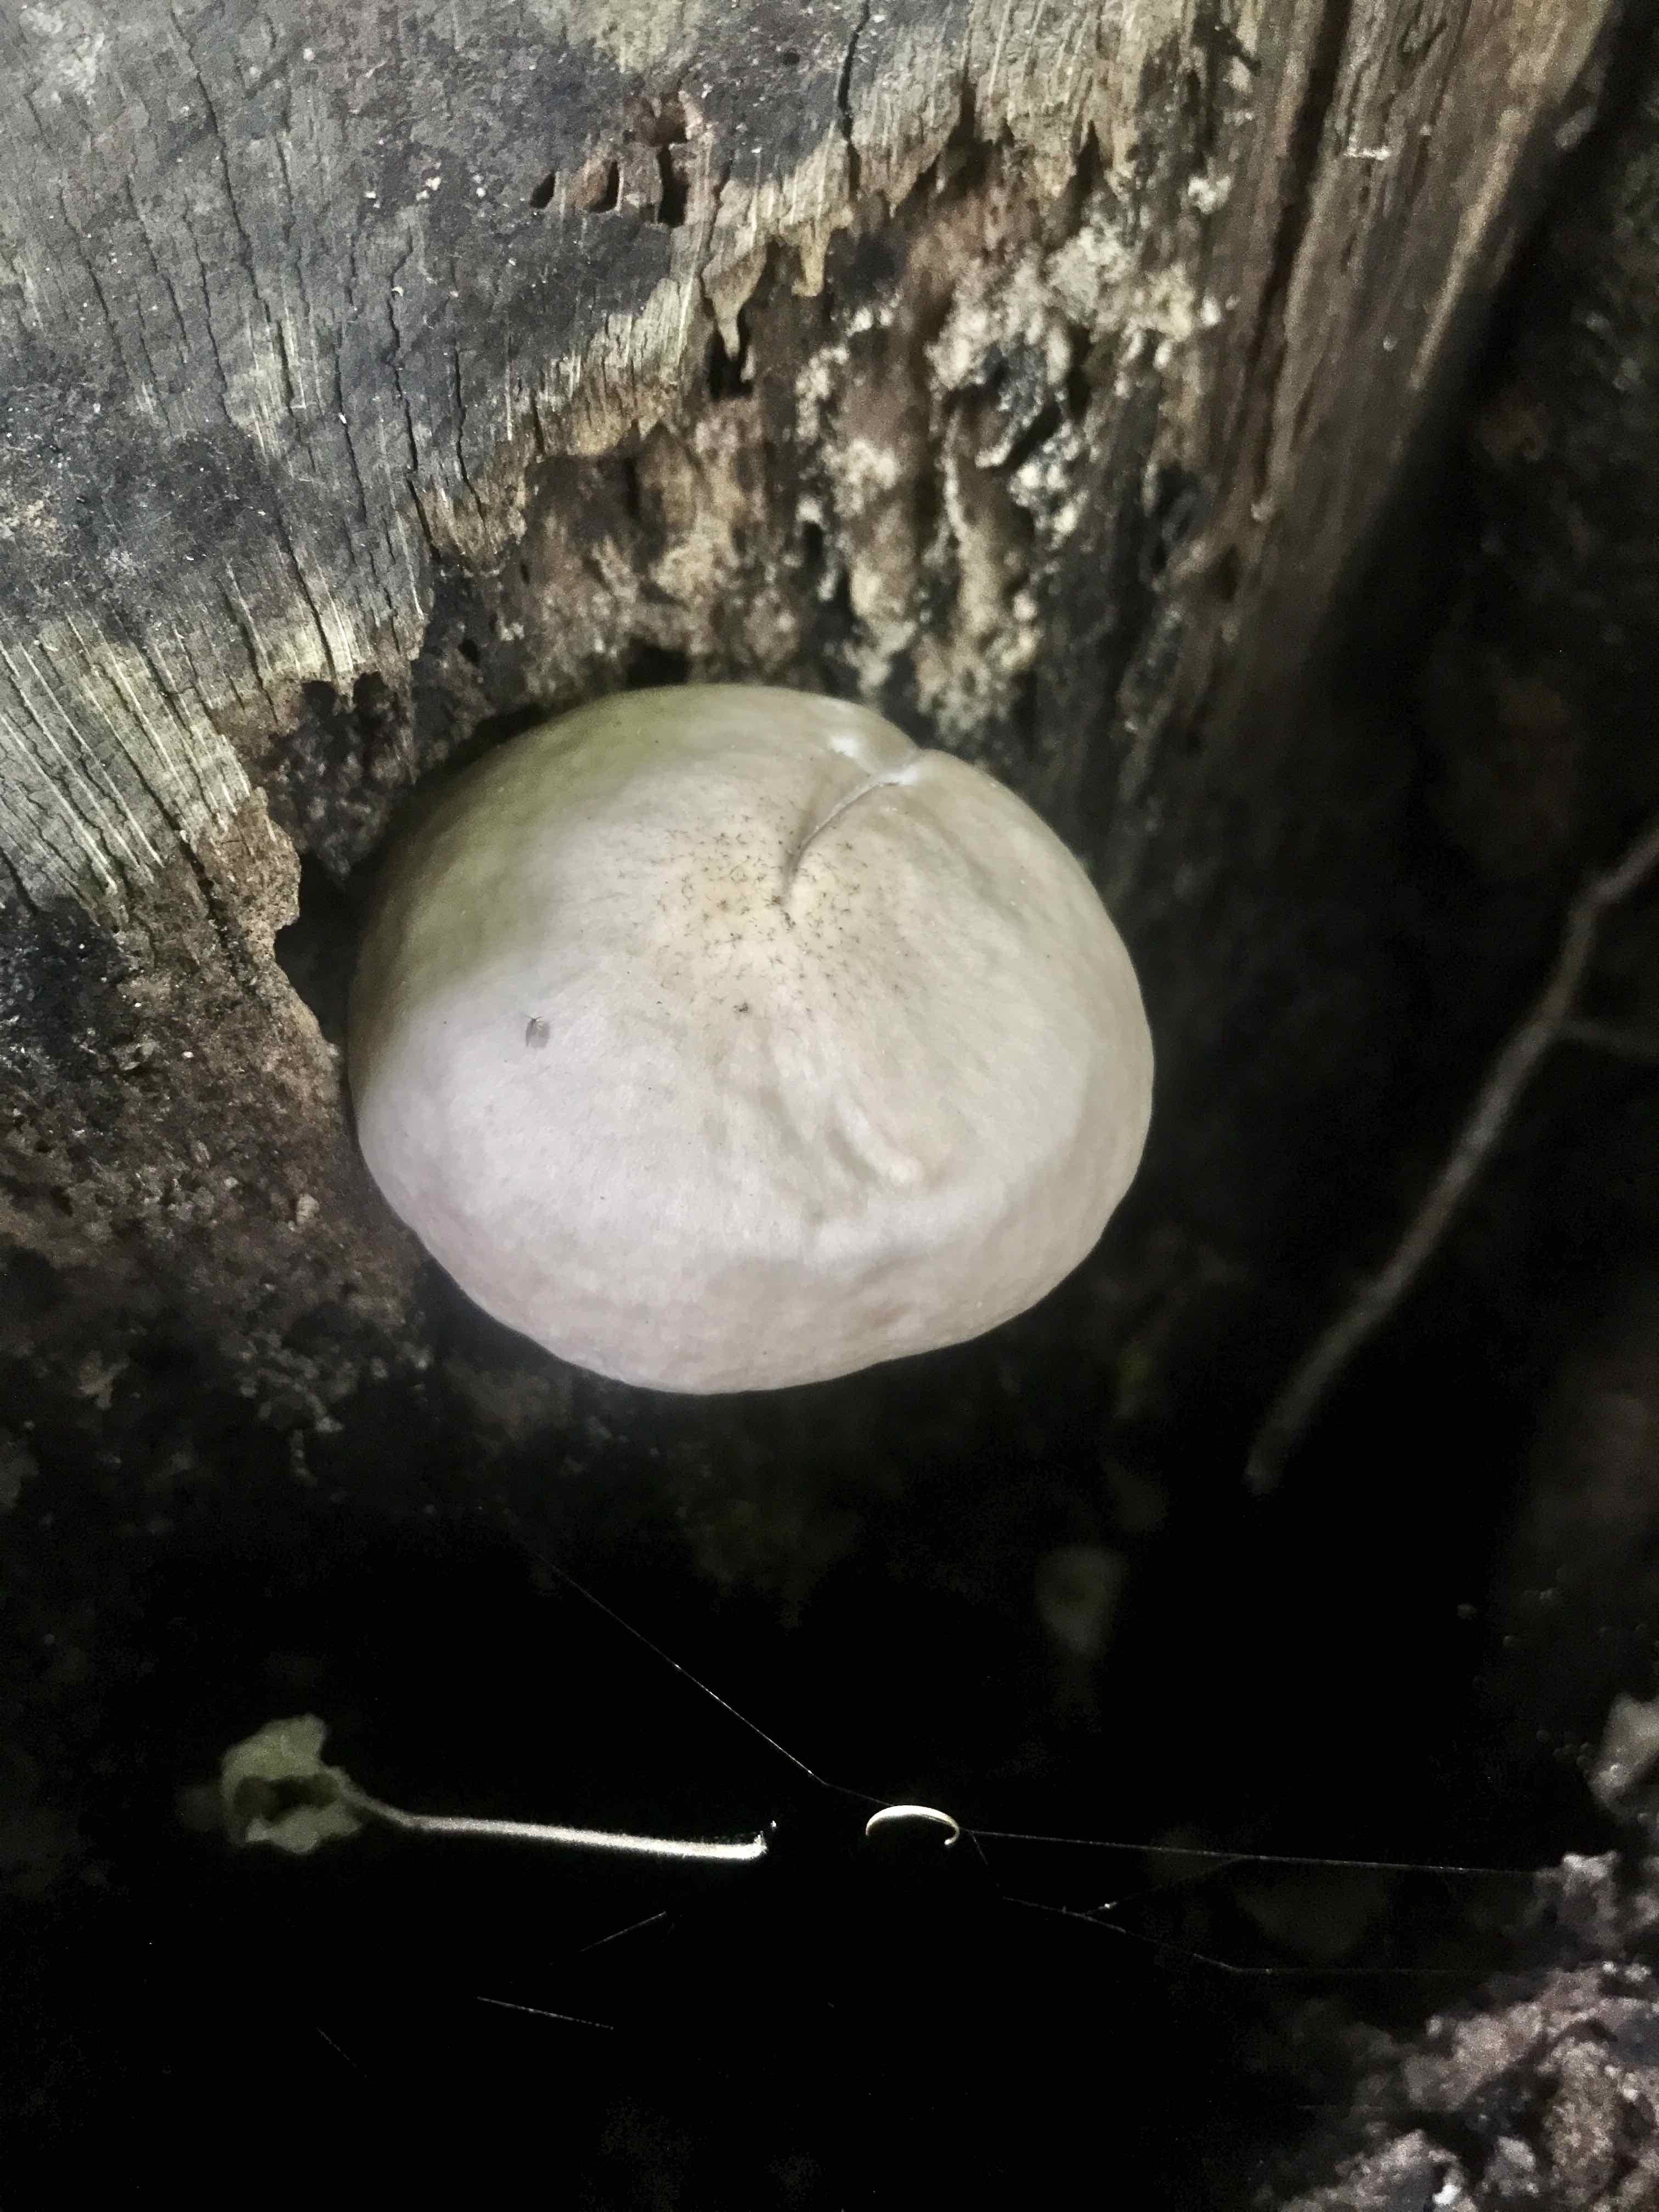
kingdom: Fungi
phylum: Basidiomycota
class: Agaricomycetes
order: Agaricales
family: Pluteaceae
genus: Pluteus
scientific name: Pluteus
